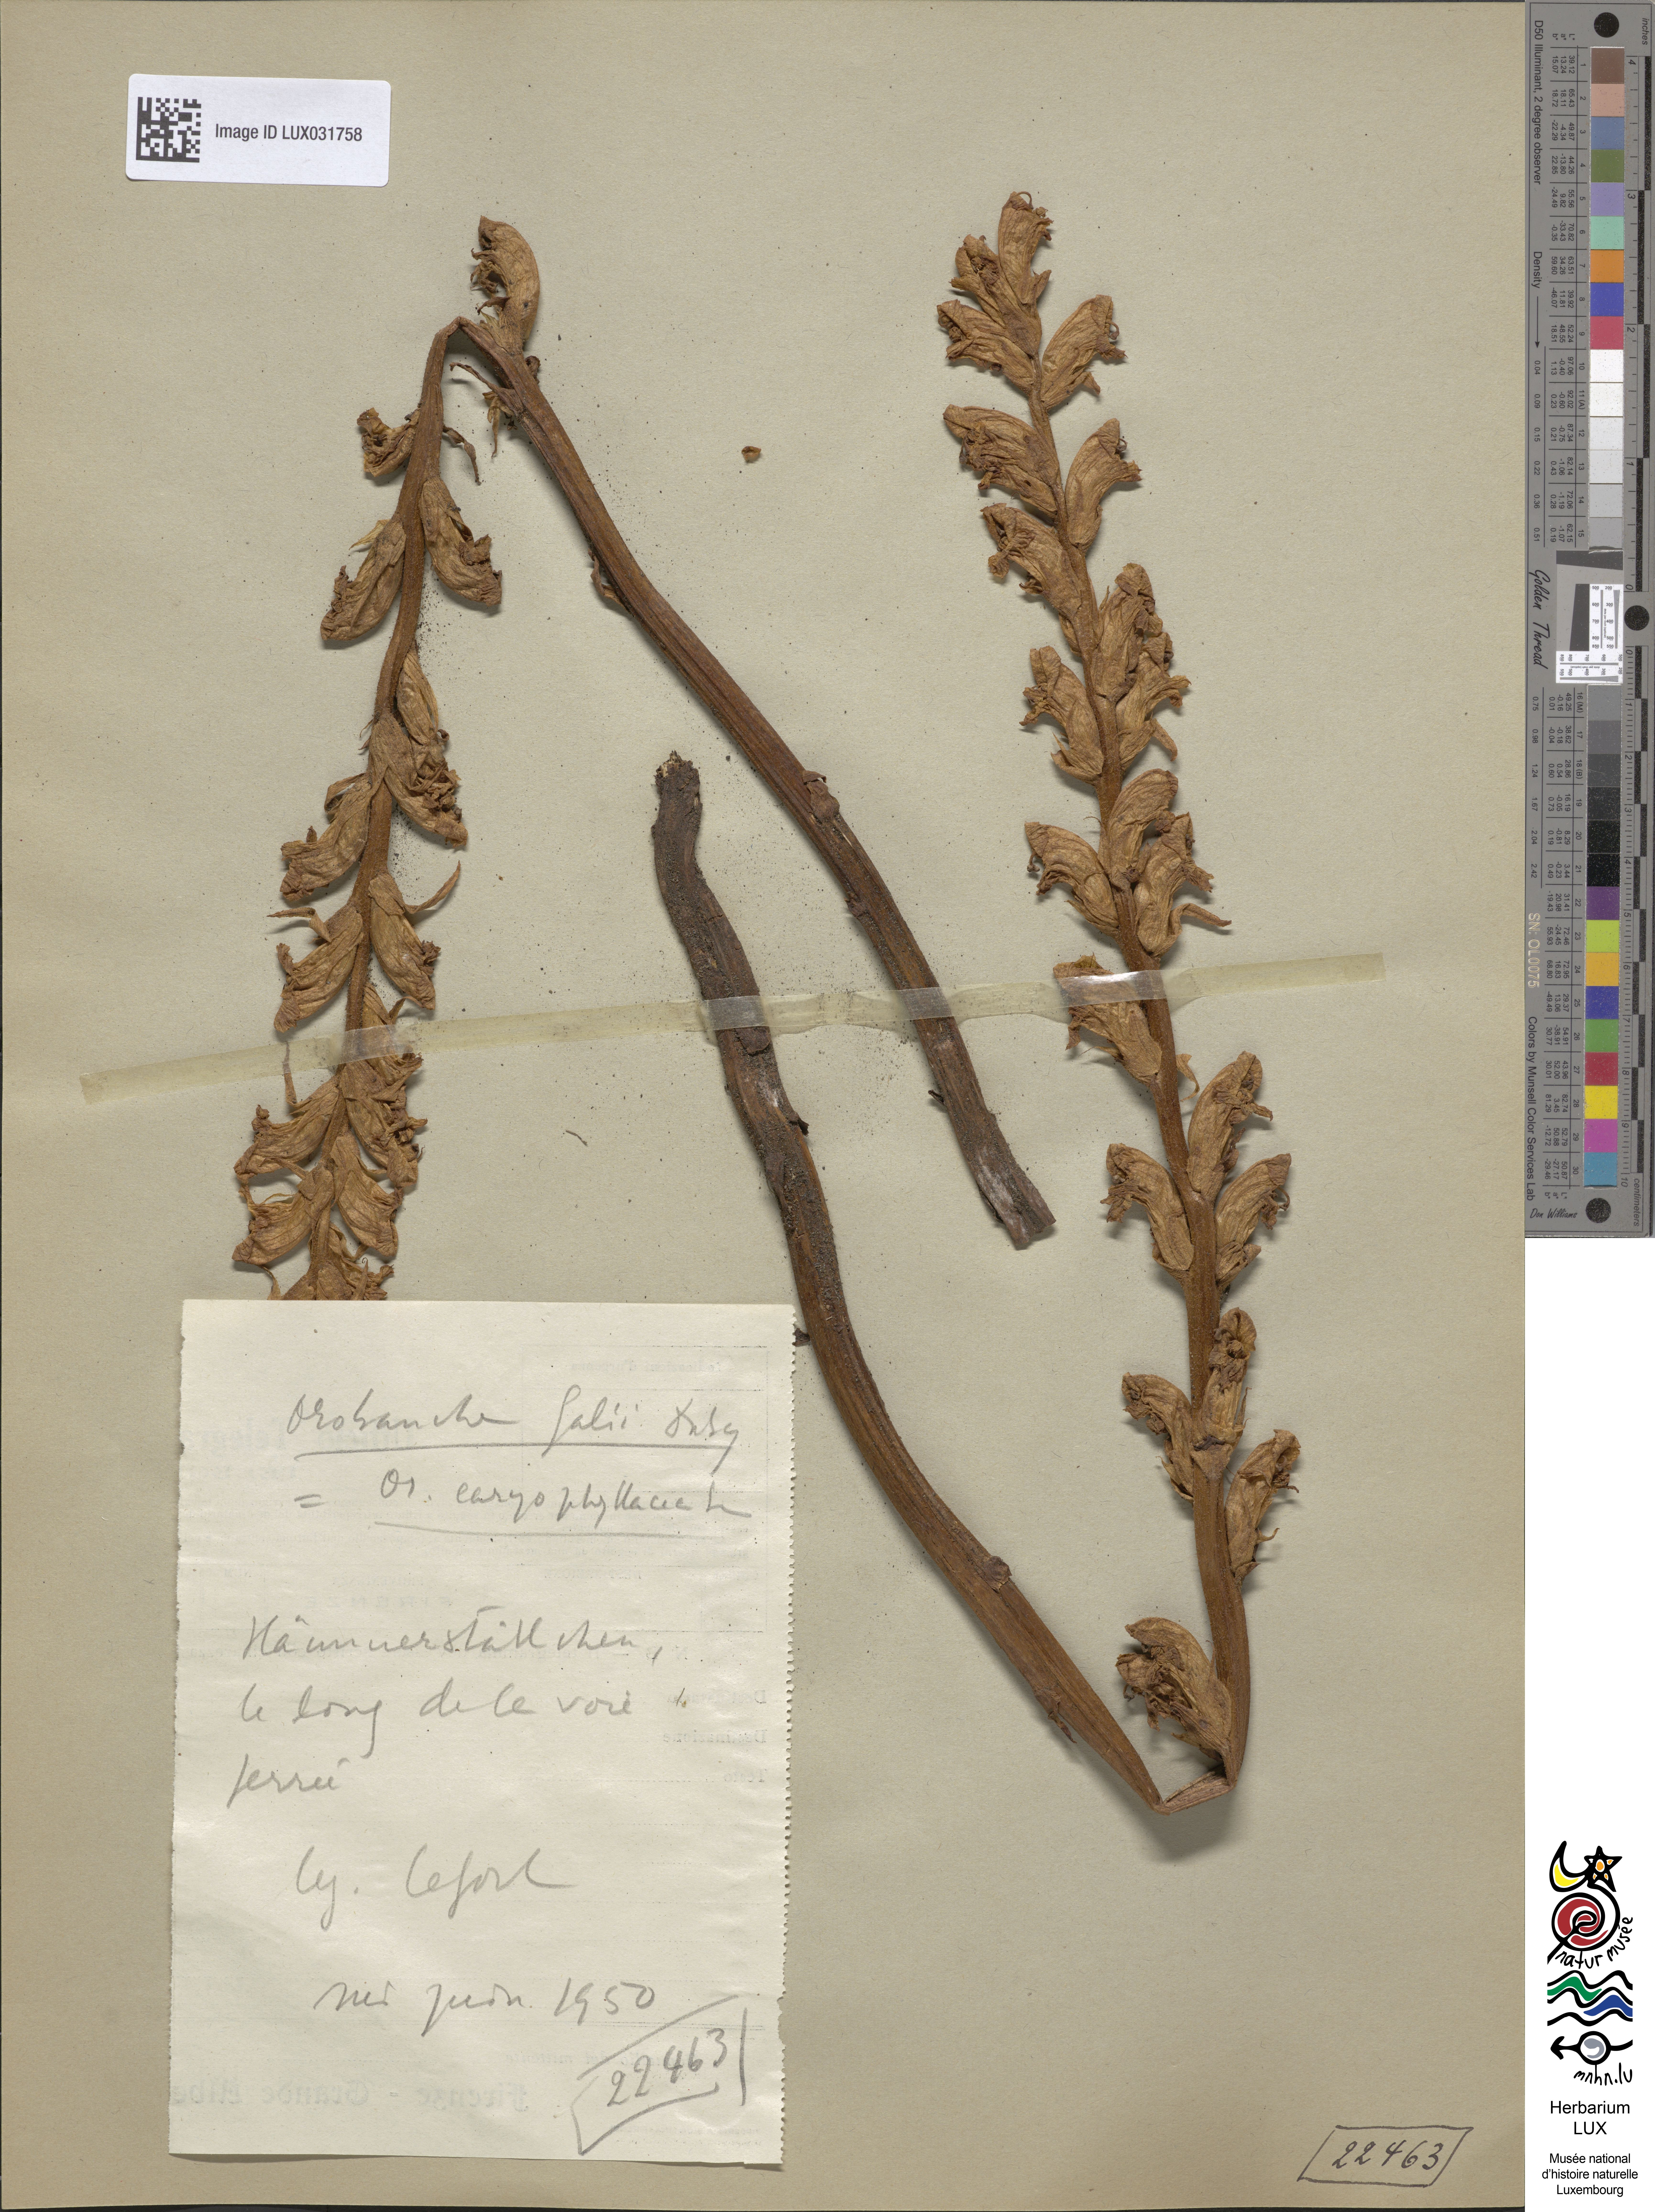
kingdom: Plantae
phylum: Tracheophyta
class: Magnoliopsida
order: Lamiales
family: Orobanchaceae
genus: Orobanche
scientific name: Orobanche caryophyllacea
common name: Bedstraw broomrape
